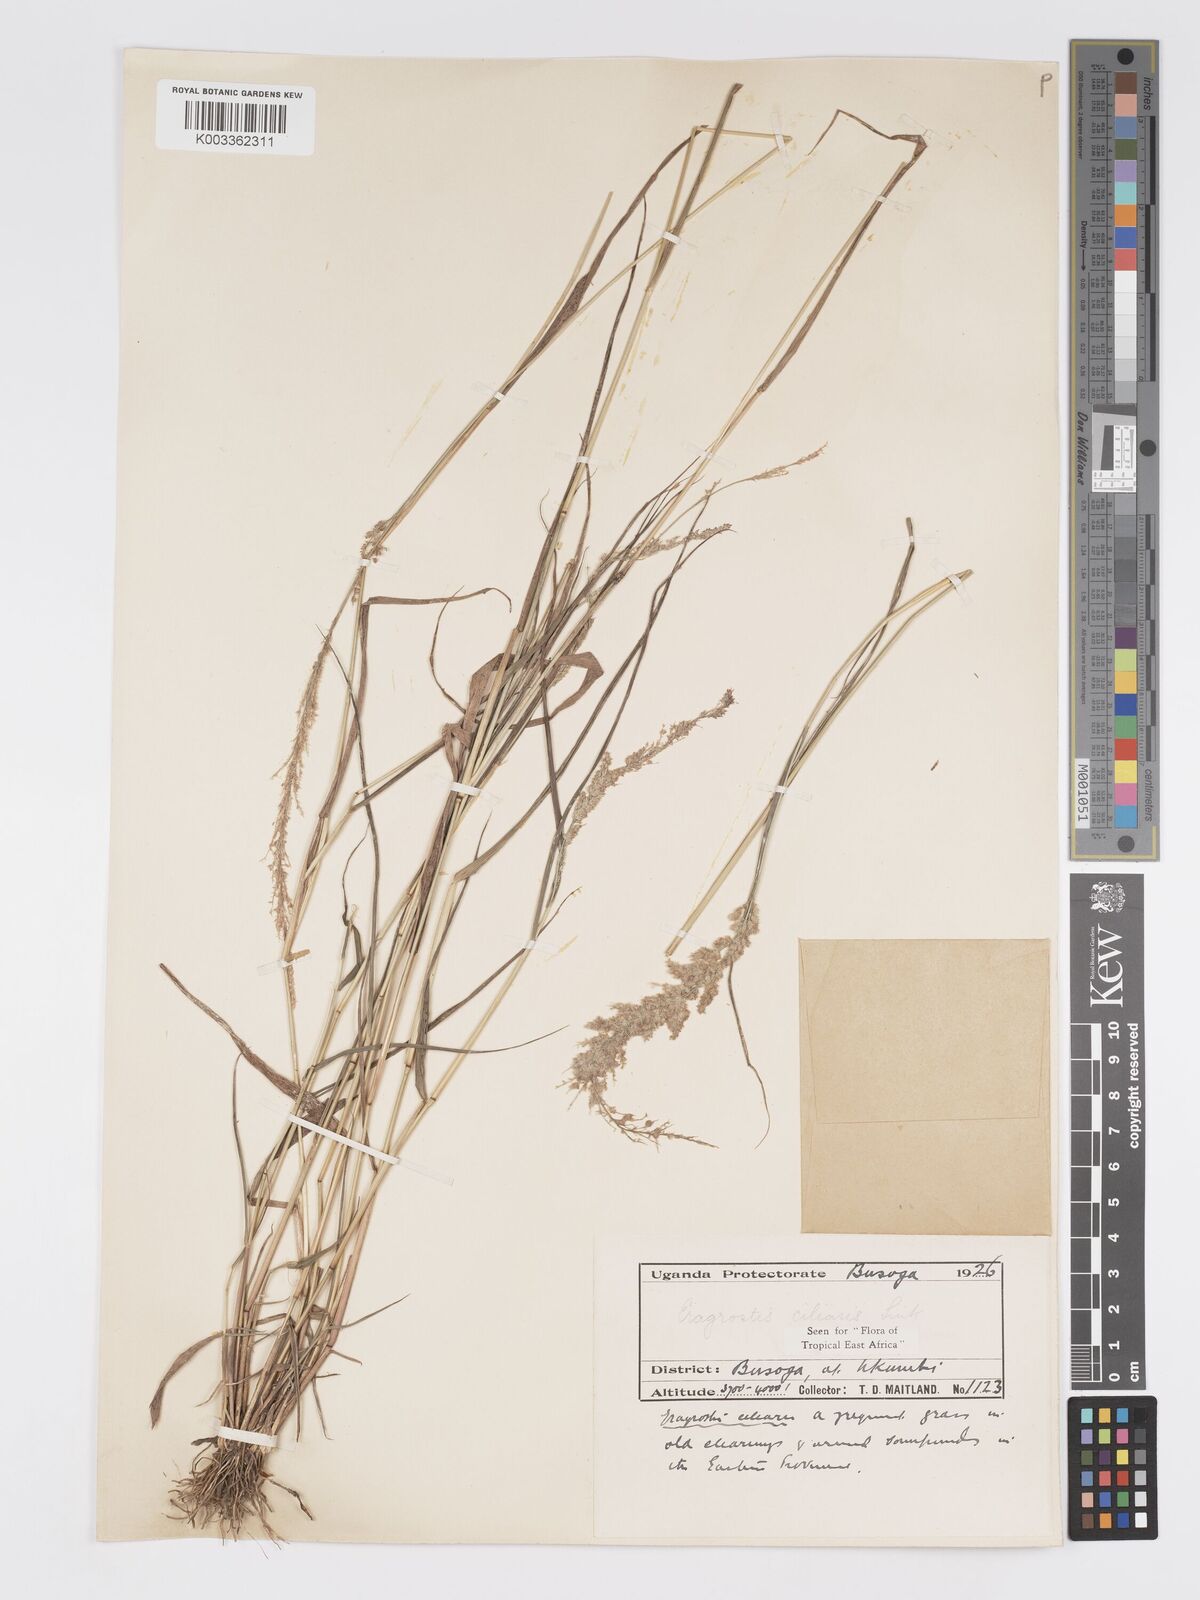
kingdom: Plantae
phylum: Tracheophyta
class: Liliopsida
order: Poales
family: Poaceae
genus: Eragrostis
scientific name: Eragrostis ciliaris
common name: Gophertail lovegrass
